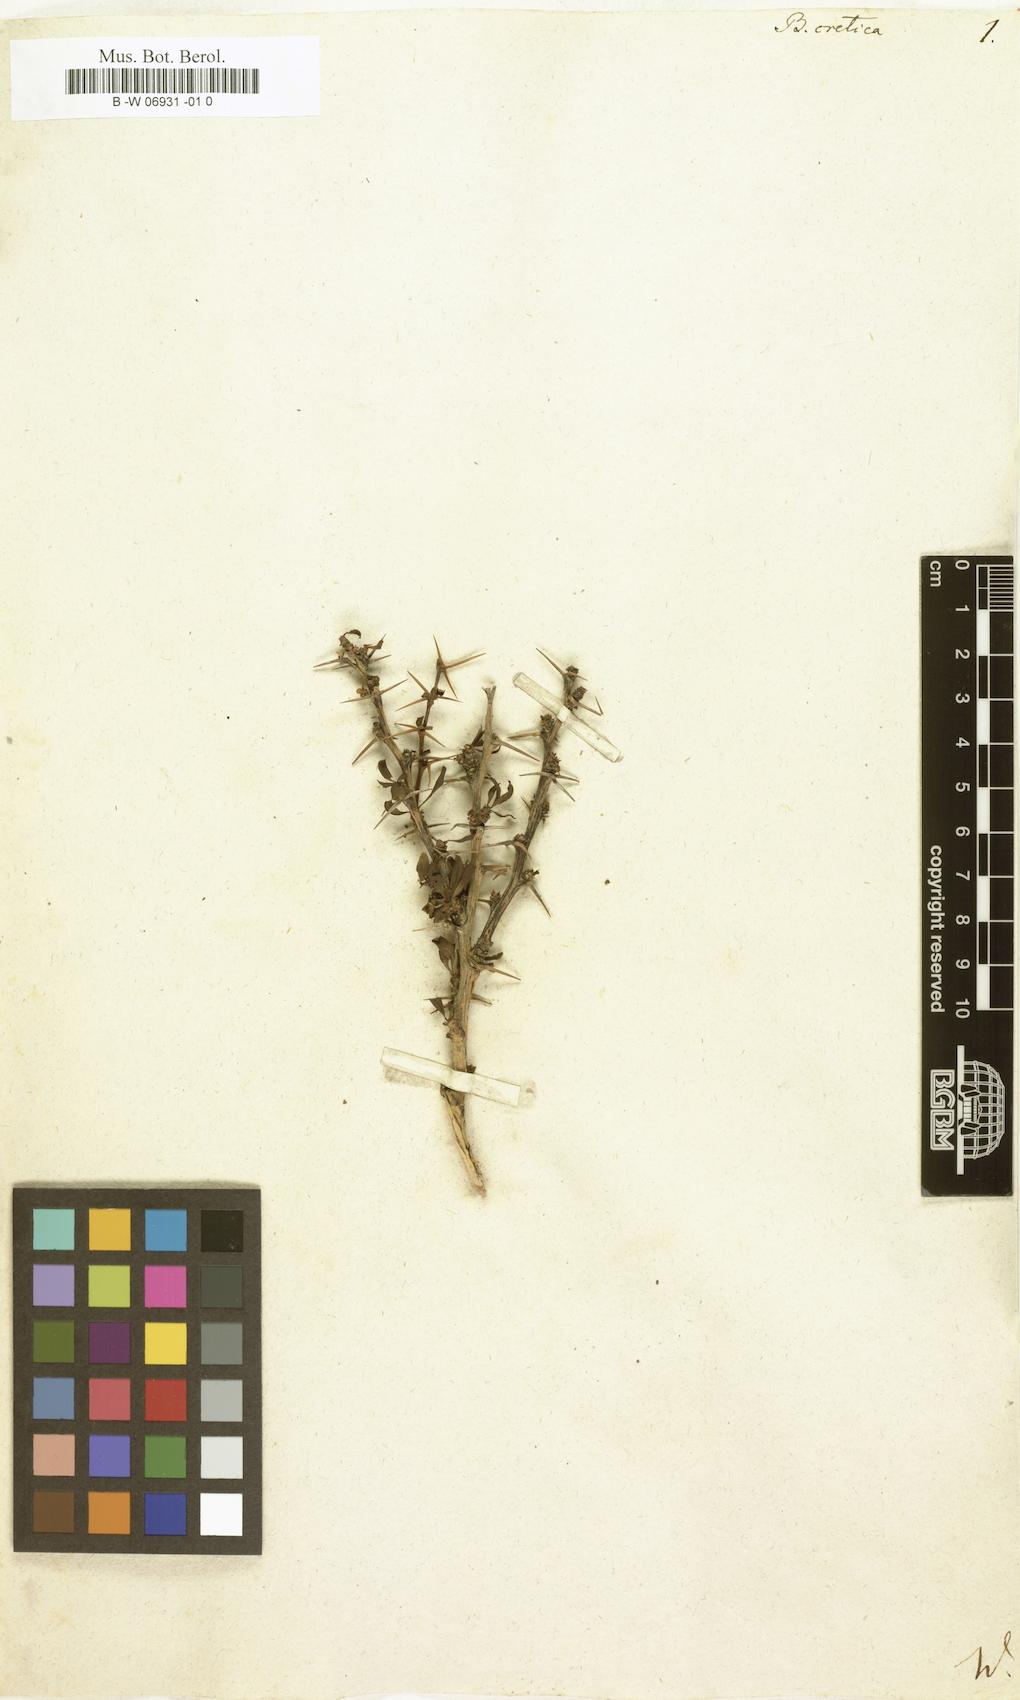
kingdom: Plantae
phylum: Tracheophyta
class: Magnoliopsida
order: Ranunculales
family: Berberidaceae
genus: Berberis
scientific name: Berberis cretica
